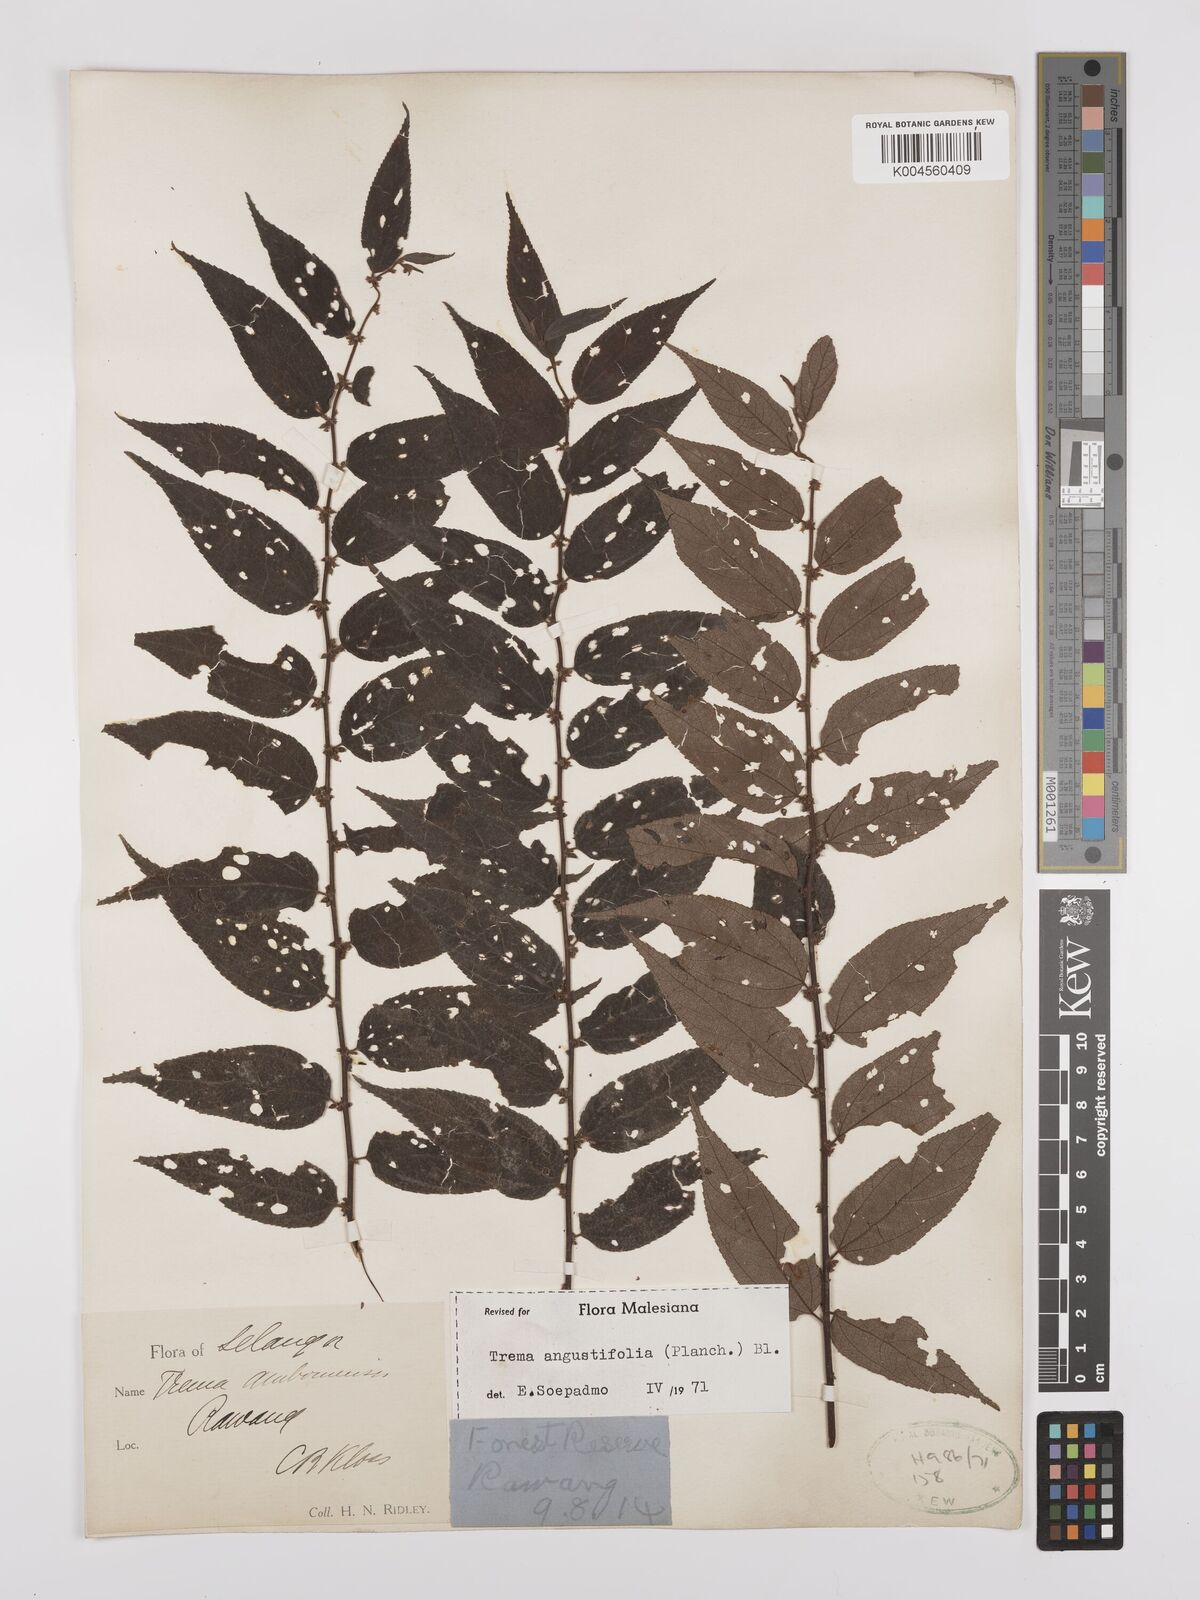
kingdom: Plantae
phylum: Tracheophyta
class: Magnoliopsida
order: Rosales
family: Cannabaceae
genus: Trema
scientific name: Trema angustifolium
